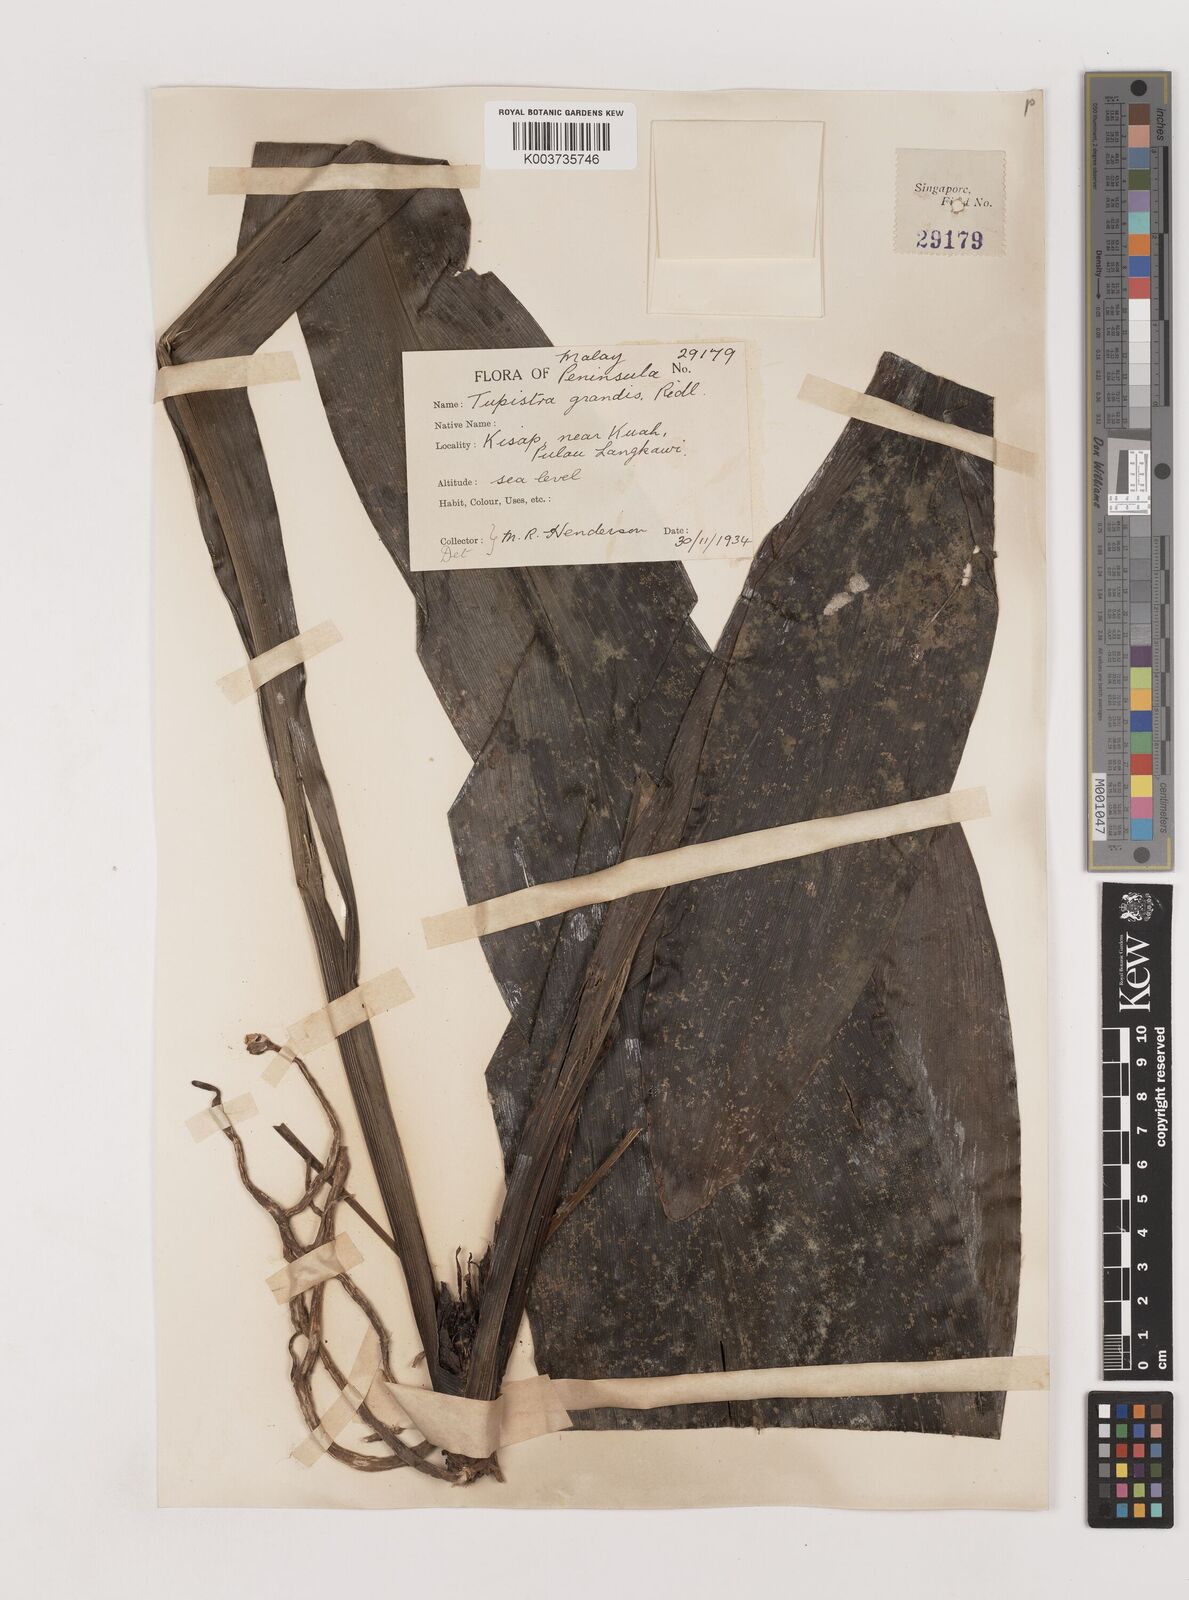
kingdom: Plantae
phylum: Tracheophyta
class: Liliopsida
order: Asparagales
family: Asparagaceae
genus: Tupistra
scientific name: Tupistra grandis
